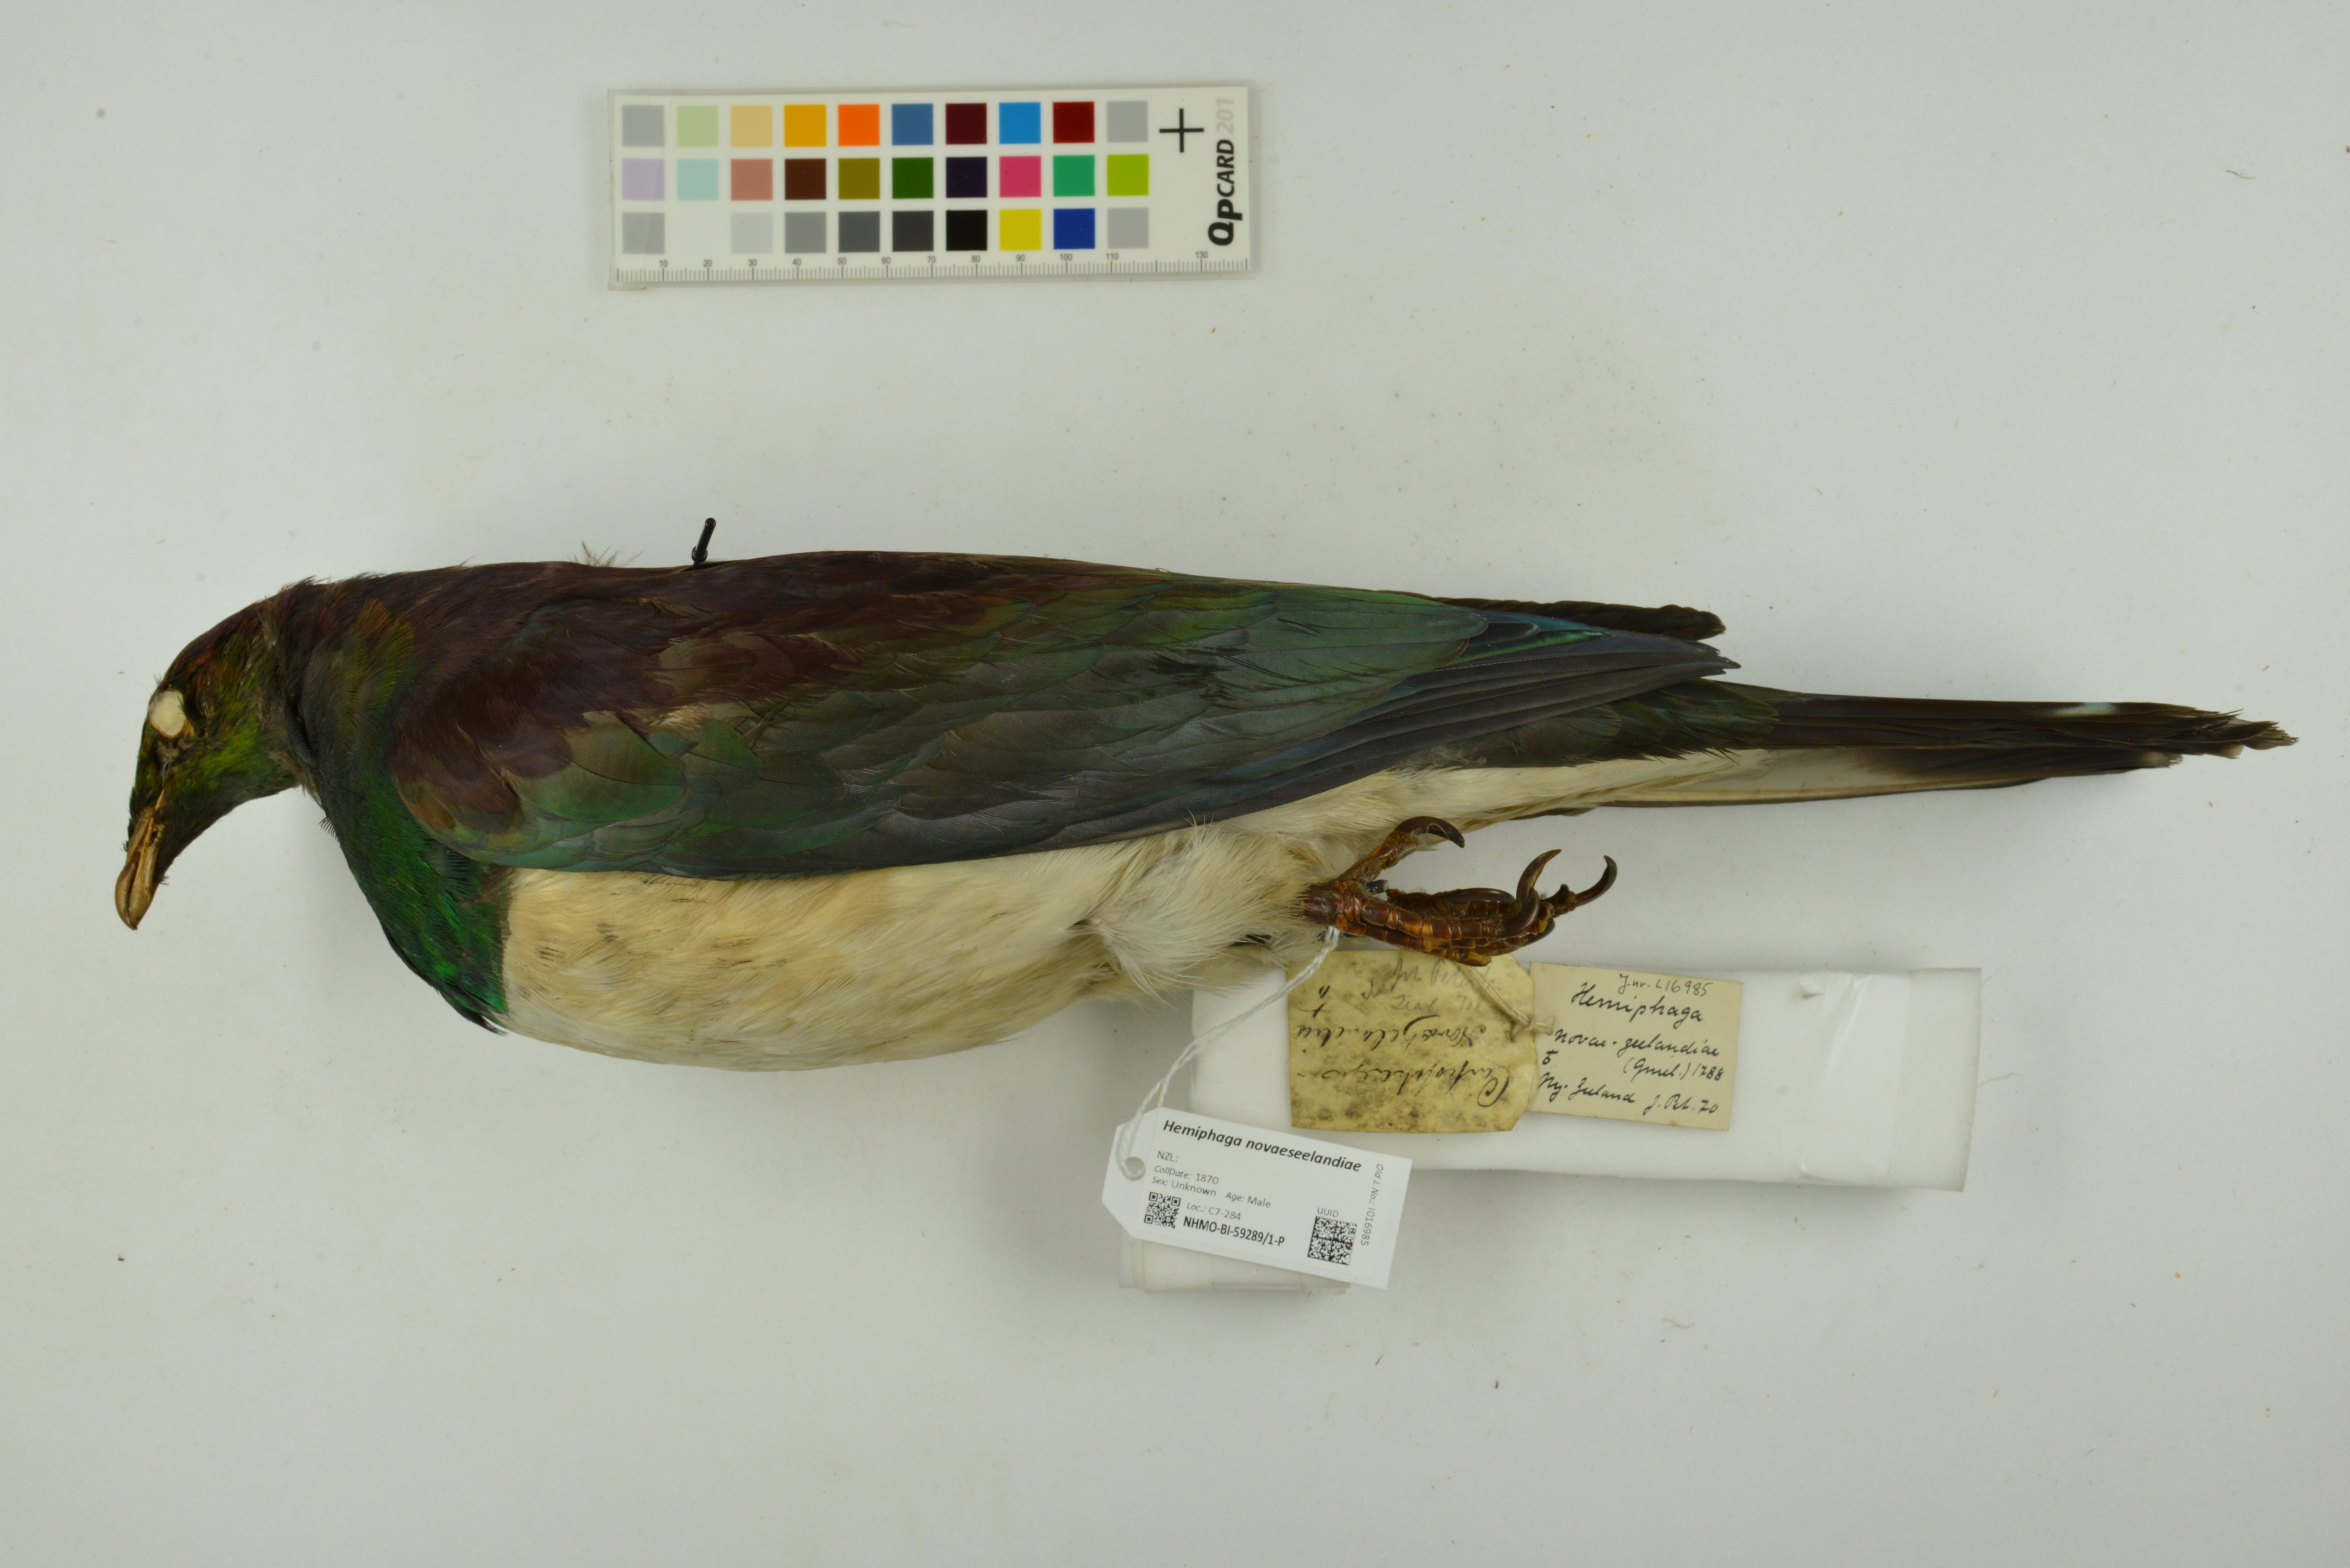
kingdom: Animalia
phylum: Chordata
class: Aves
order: Columbiformes
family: Columbidae
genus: Hemiphaga
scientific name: Hemiphaga novaeseelandiae
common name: New zealand pigeon
